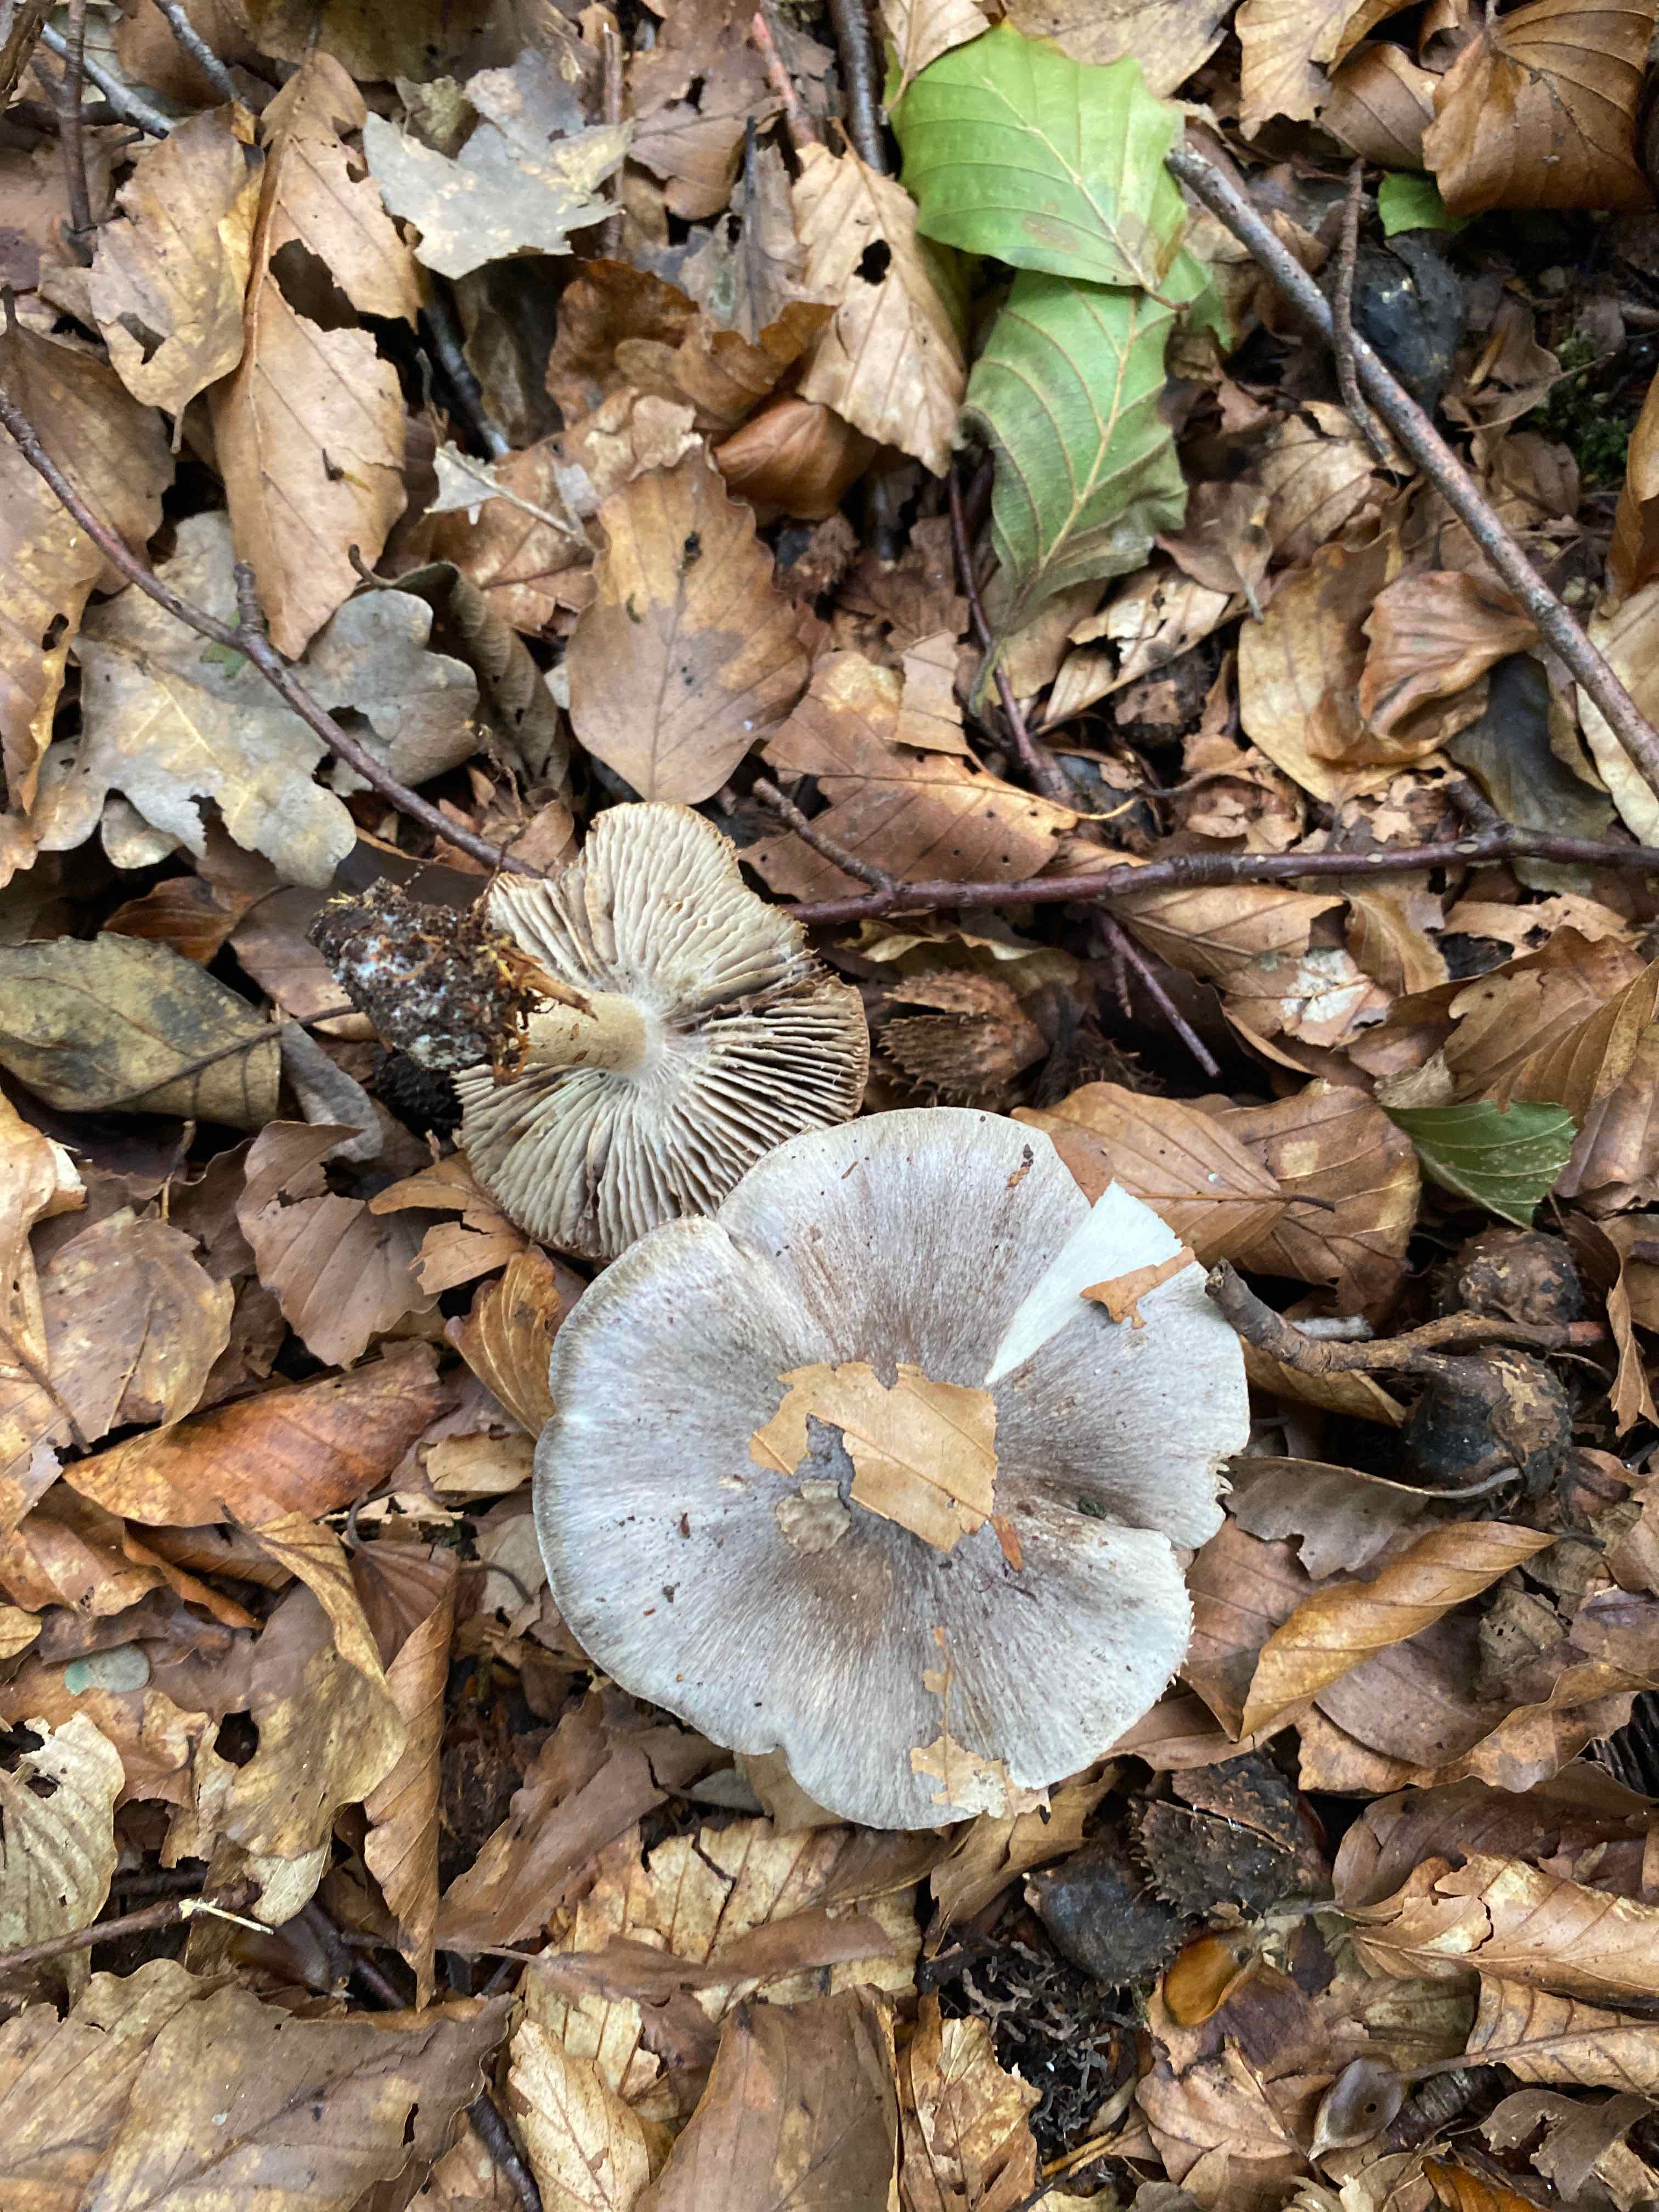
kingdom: Fungi
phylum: Basidiomycota
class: Agaricomycetes
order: Agaricales
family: Tricholomataceae
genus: Tricholoma
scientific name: Tricholoma
